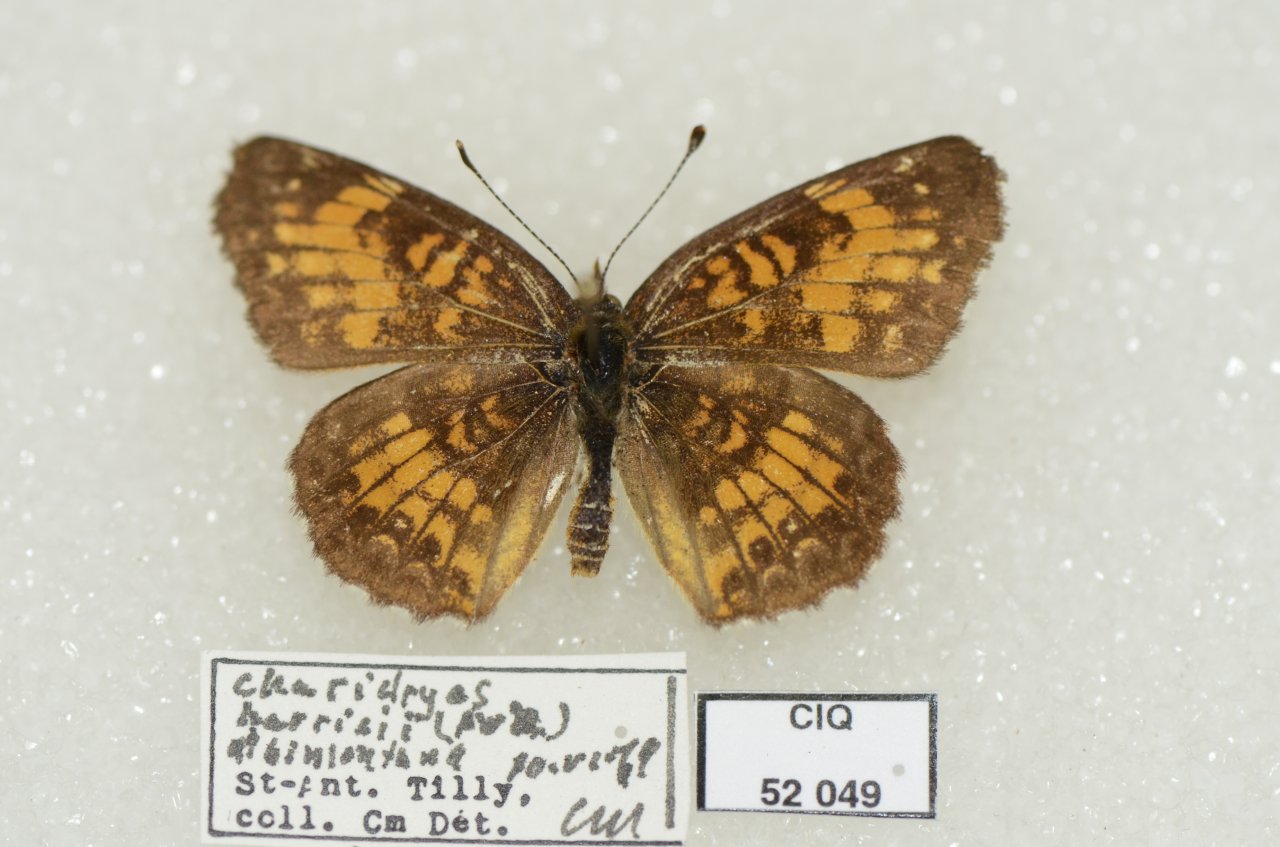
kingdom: Animalia
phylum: Arthropoda
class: Insecta
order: Lepidoptera
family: Nymphalidae
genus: Chlosyne
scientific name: Chlosyne harrisii
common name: Harris's Checkerspot
